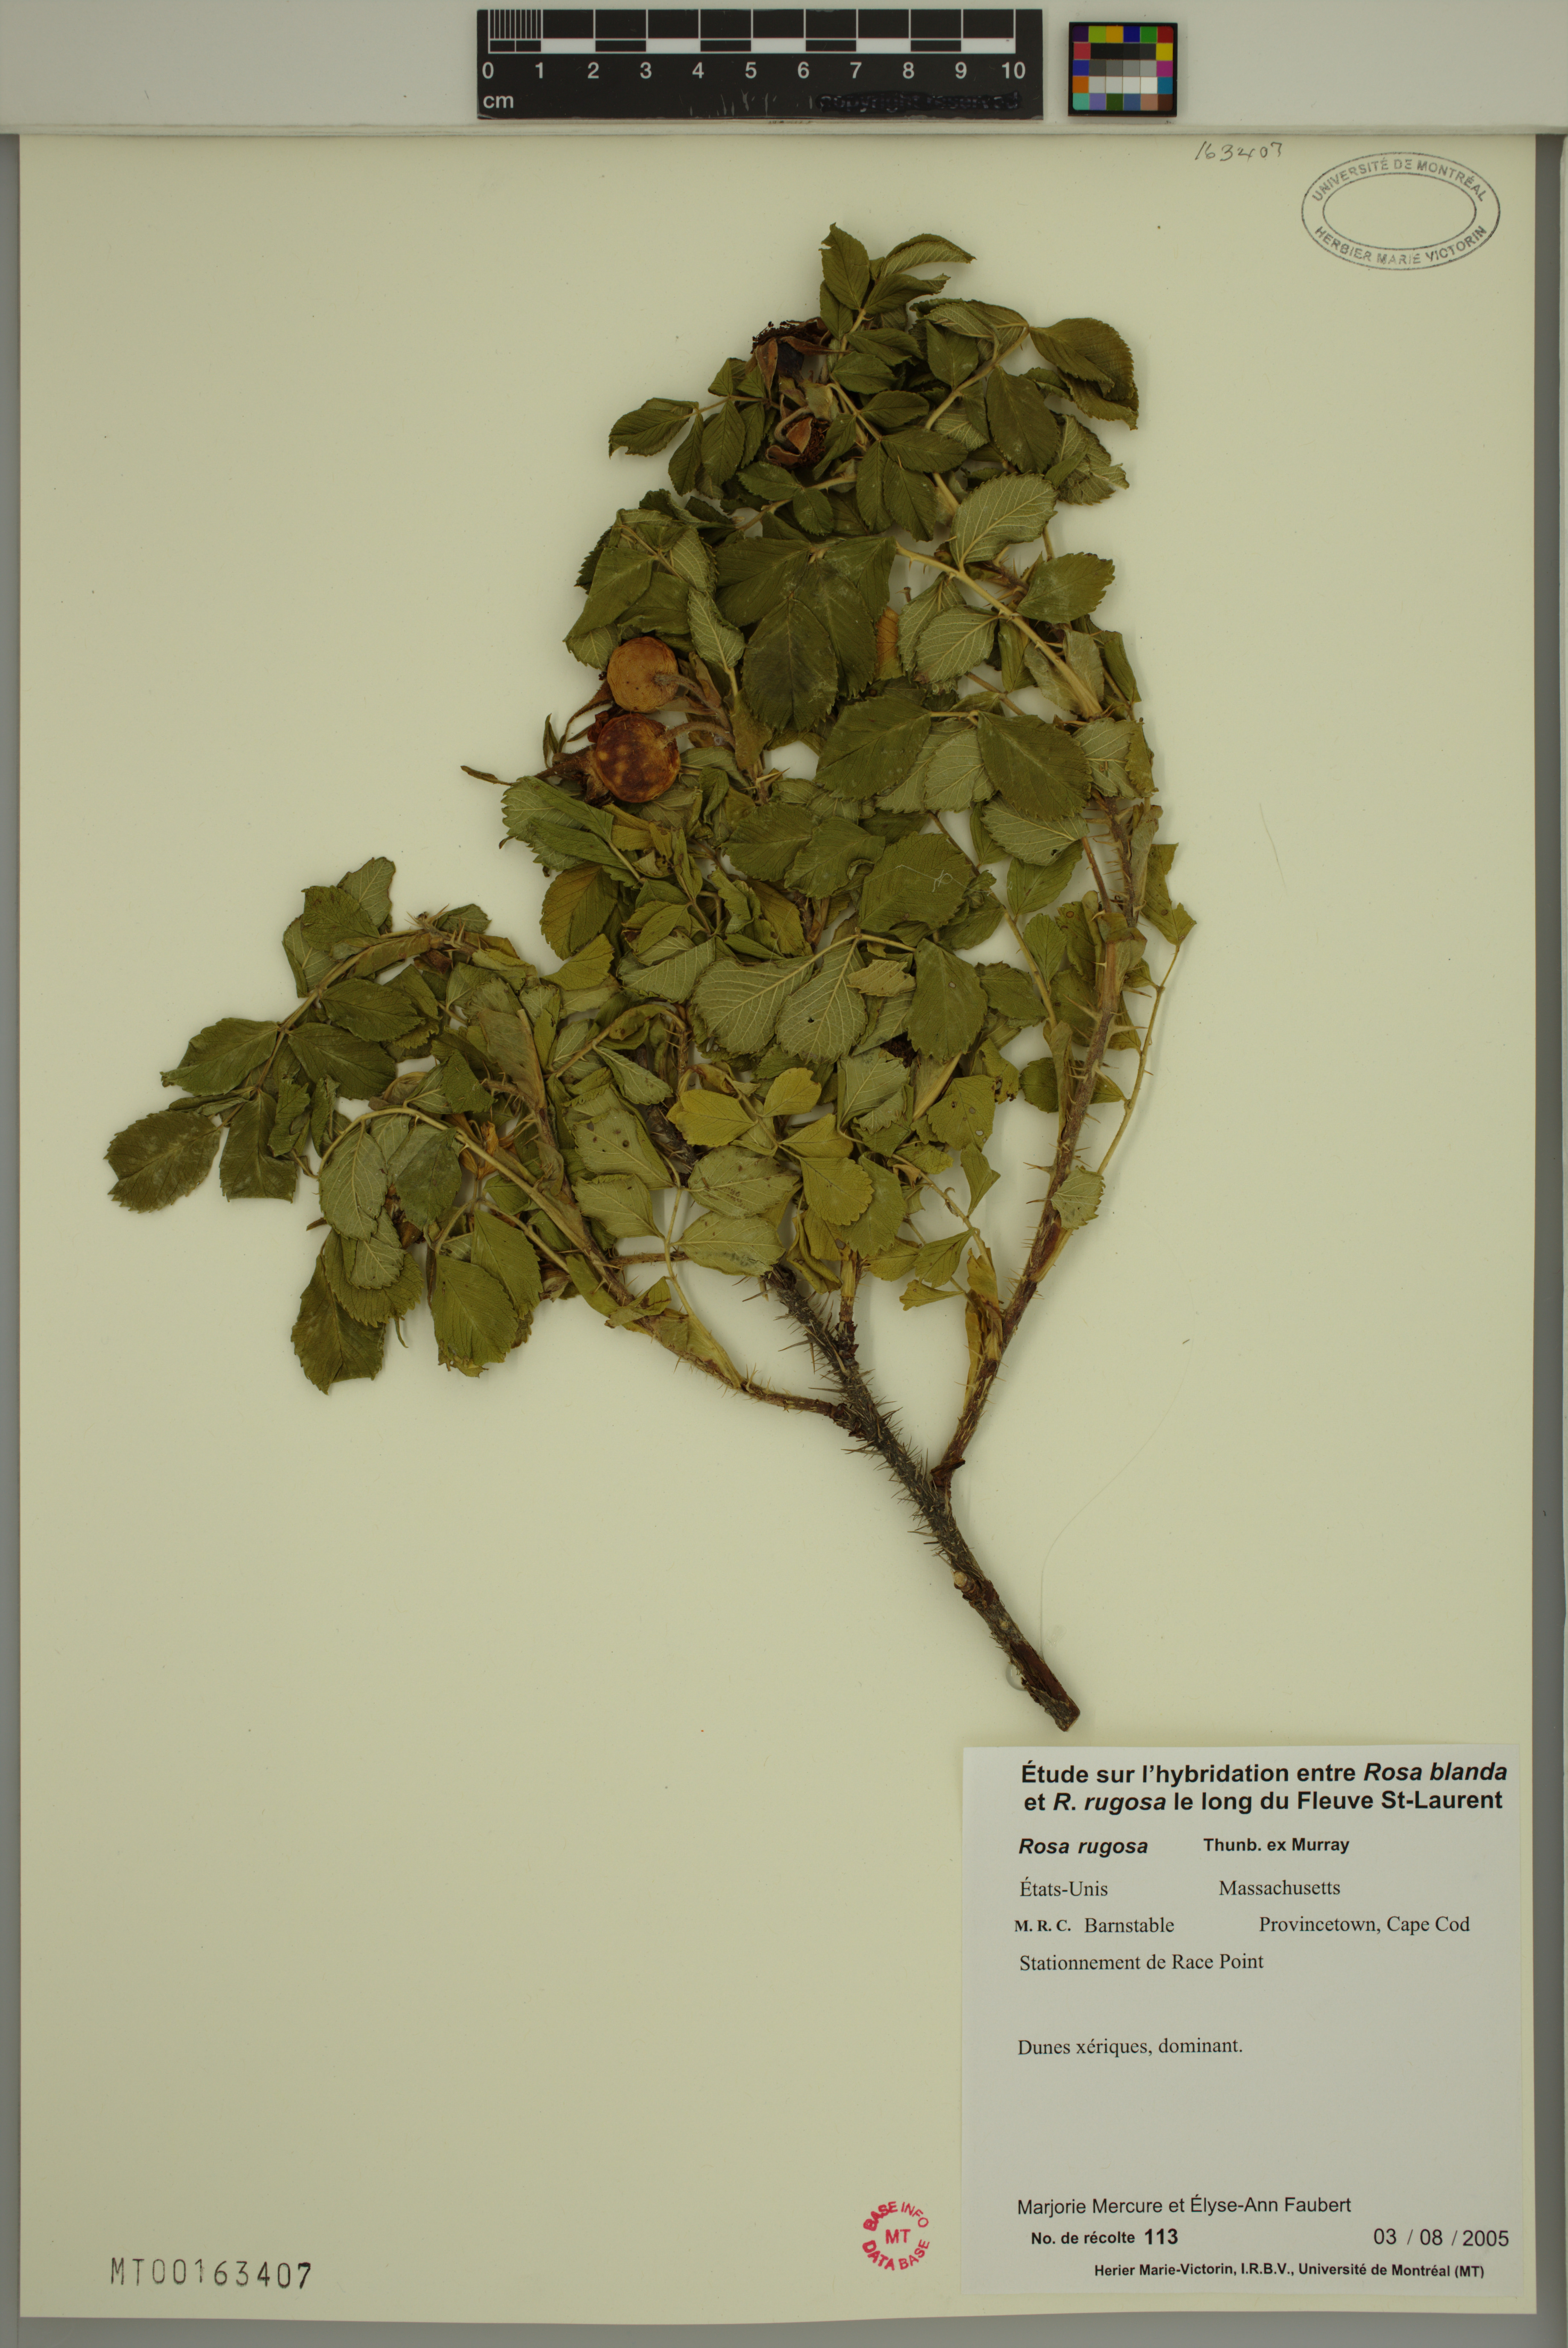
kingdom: Plantae
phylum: Tracheophyta
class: Magnoliopsida
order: Rosales
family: Rosaceae
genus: Rosa
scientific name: Rosa rugosa
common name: Japanese rose
